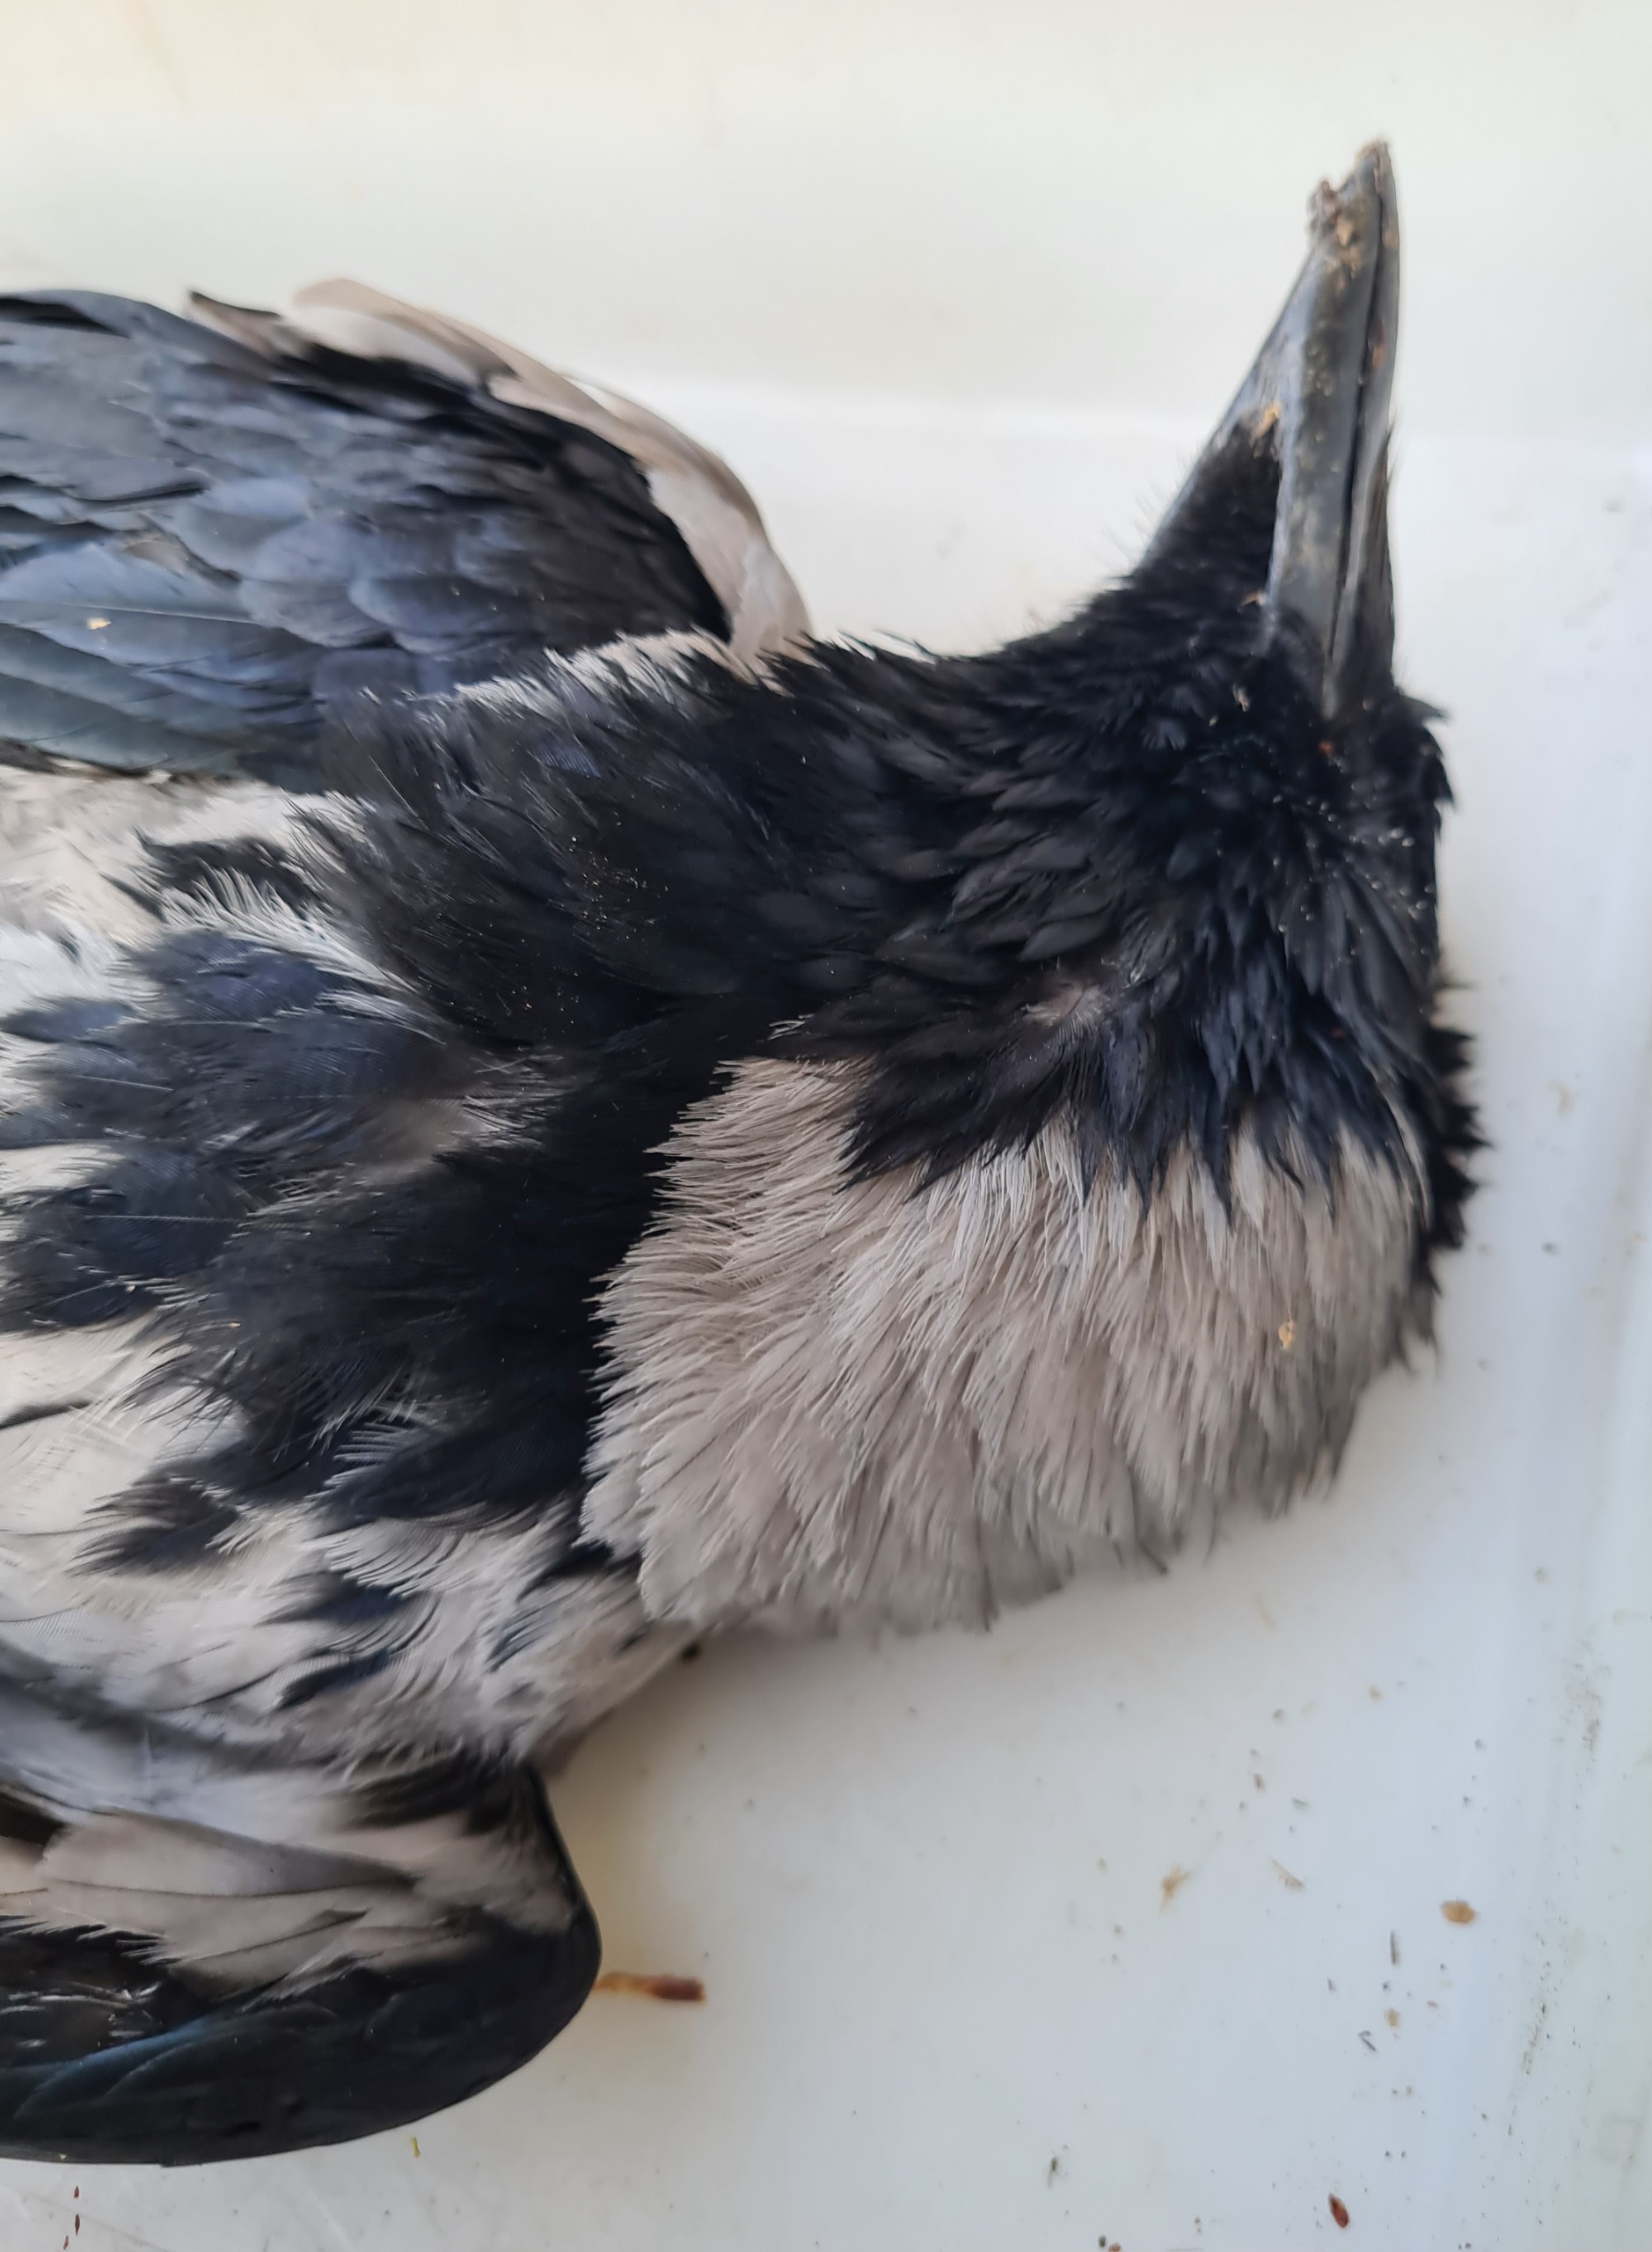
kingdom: Animalia
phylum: Chordata
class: Aves
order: Passeriformes
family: Corvidae
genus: Corvus
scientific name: Corvus cornix
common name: Gråkrage
